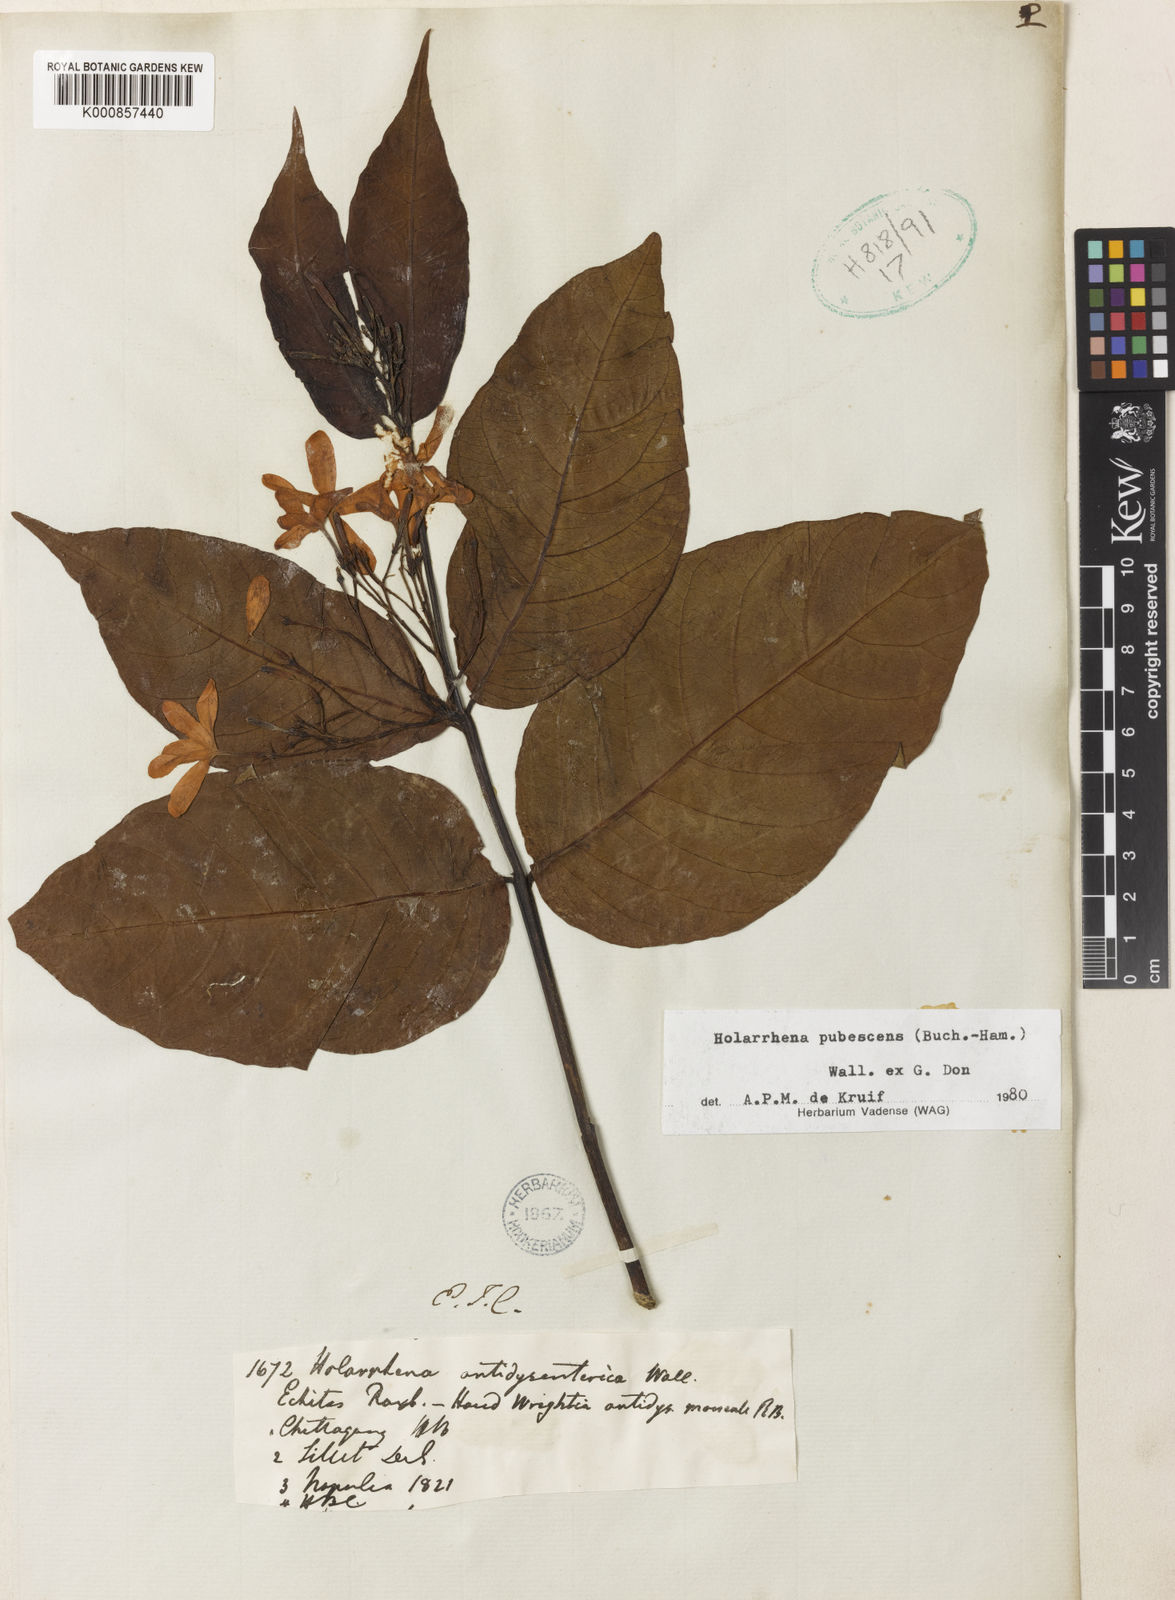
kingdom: Plantae
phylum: Tracheophyta
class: Magnoliopsida
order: Gentianales
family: Apocynaceae
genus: Holarrhena
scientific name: Holarrhena pubescens
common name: Bitter oleander
